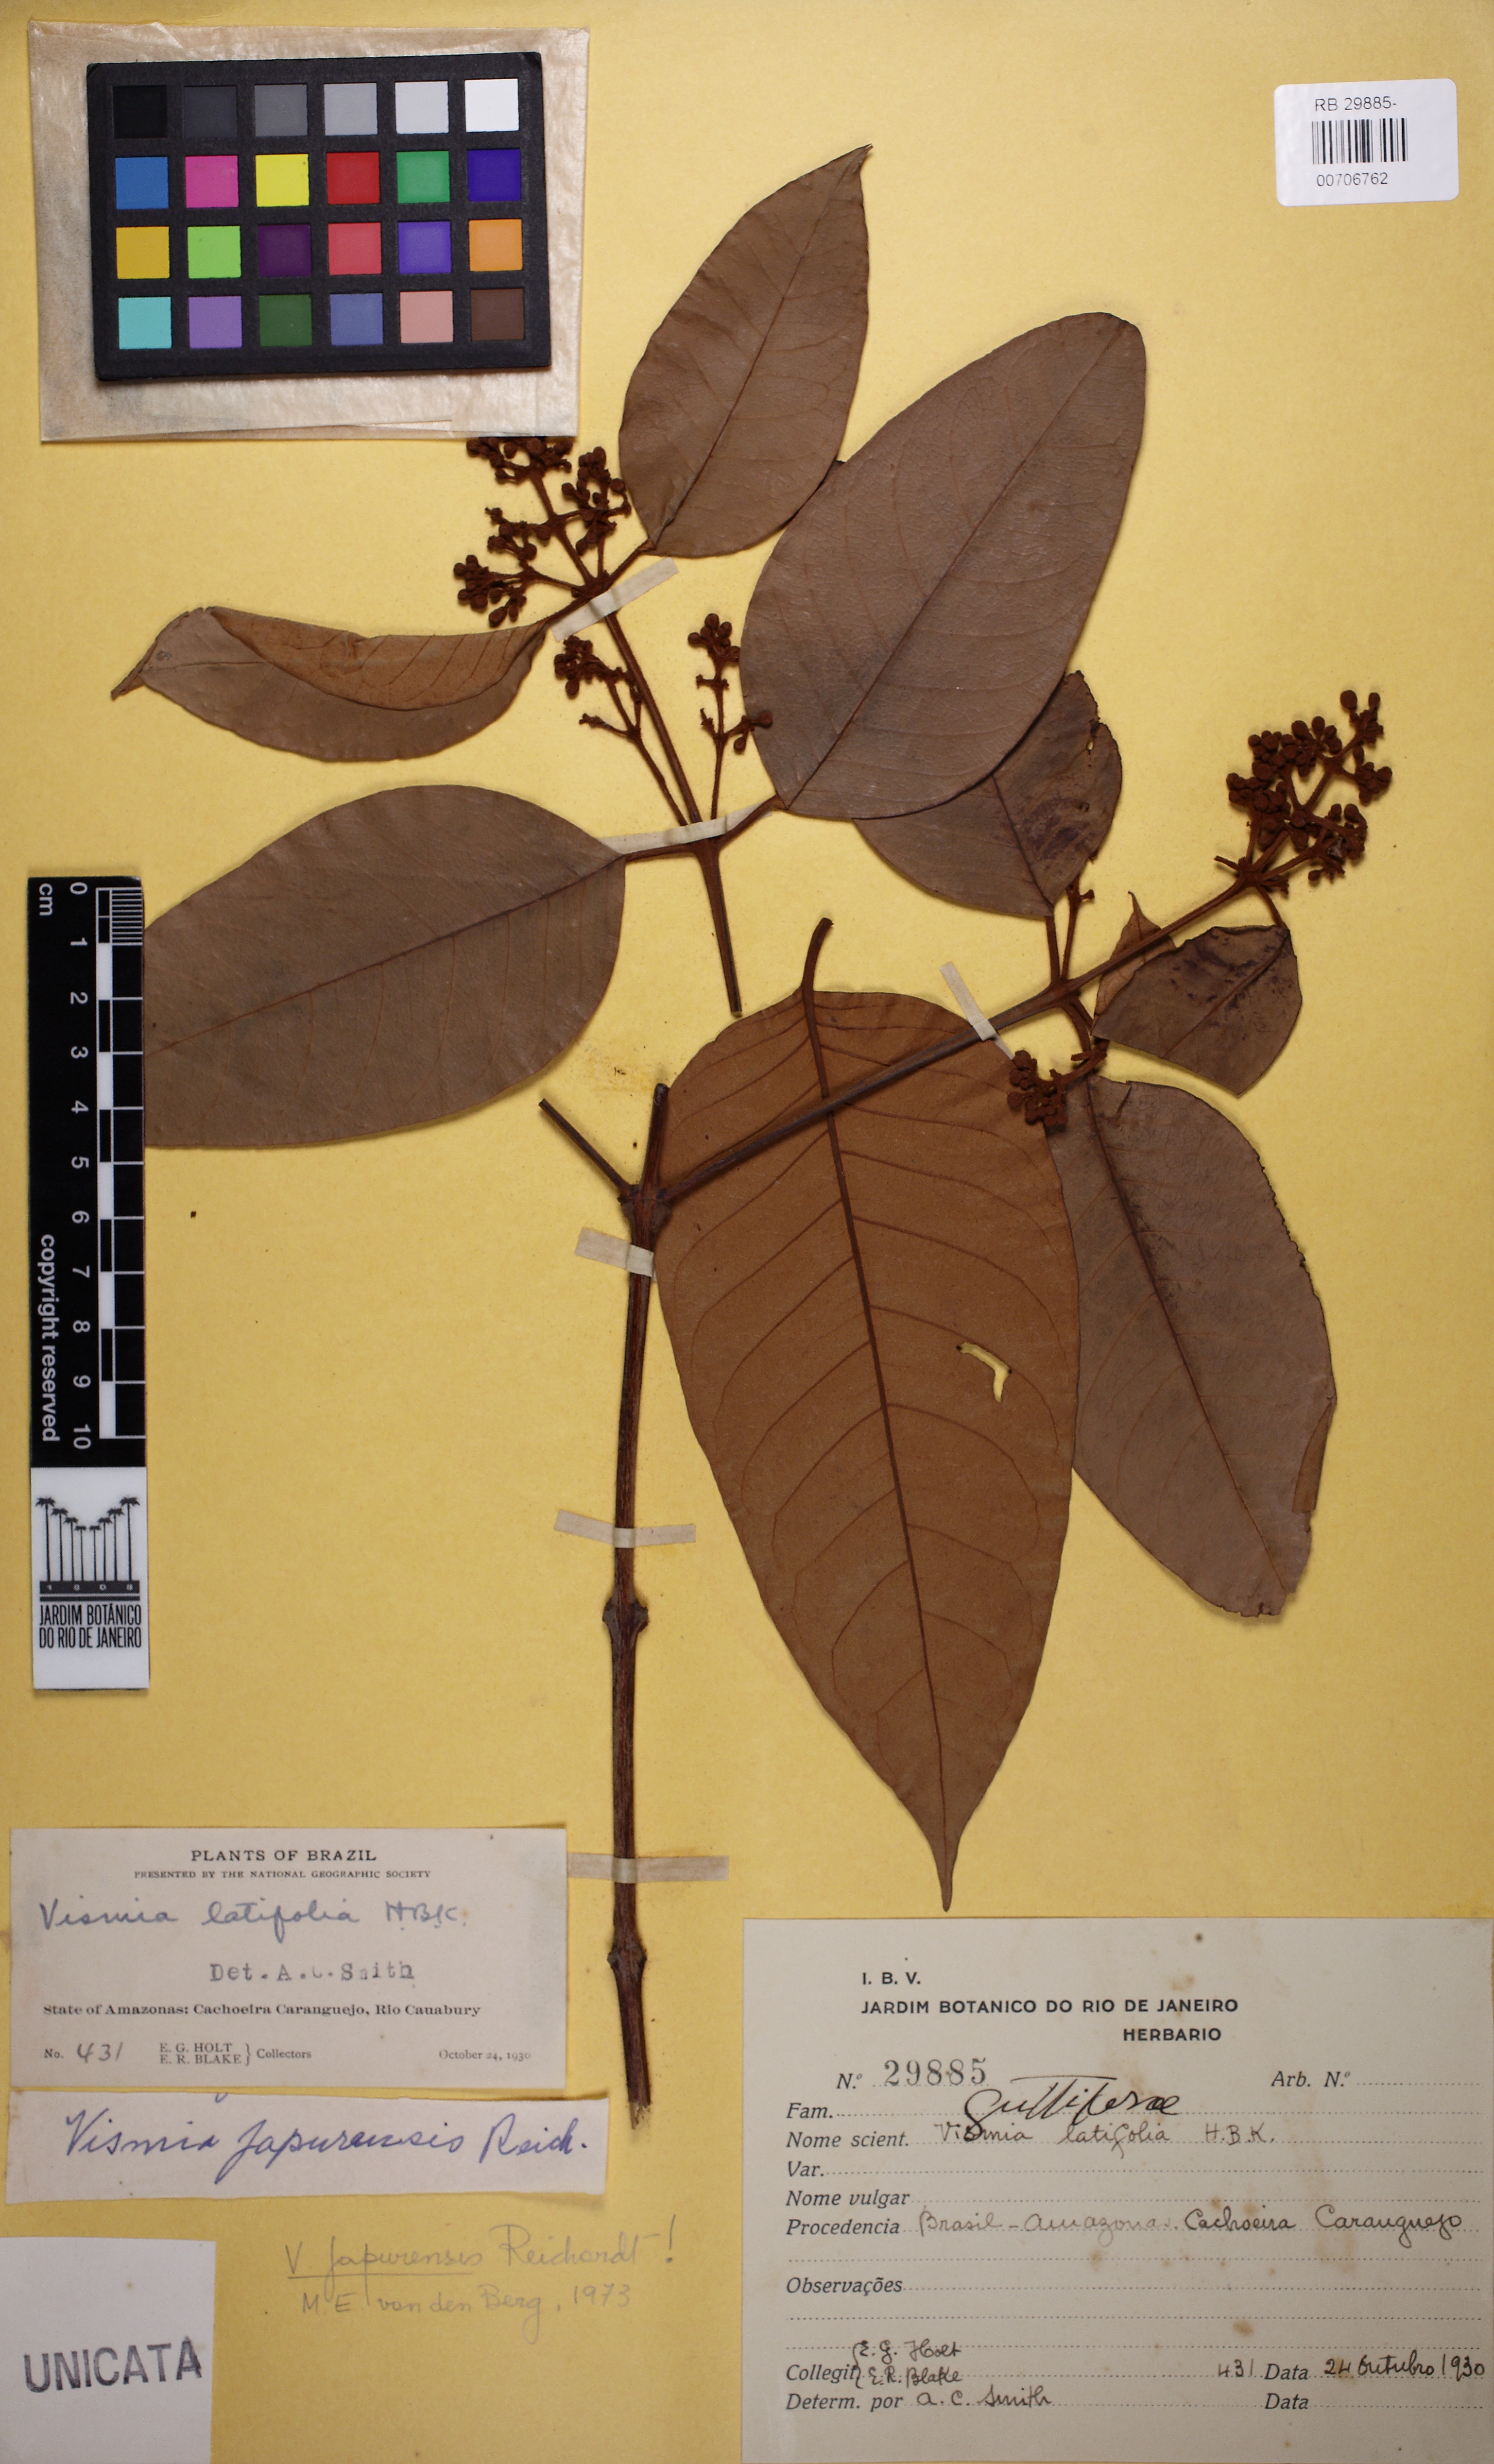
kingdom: Plantae
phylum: Tracheophyta
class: Magnoliopsida
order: Malpighiales
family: Hypericaceae
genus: Vismia
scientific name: Vismia japurensis
